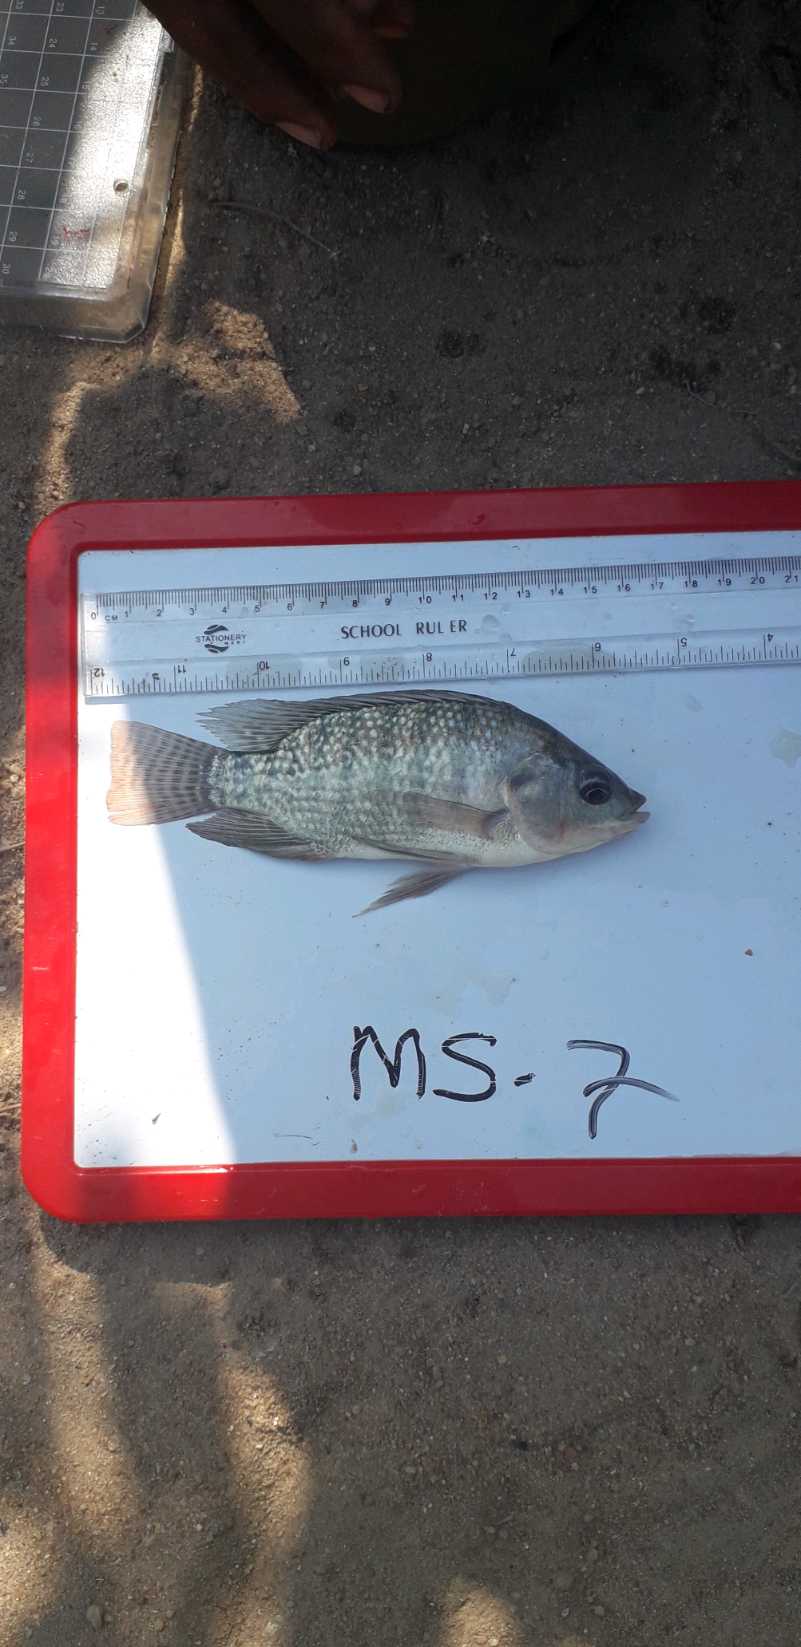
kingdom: Animalia
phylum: Chordata
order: Perciformes
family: Cichlidae
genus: Oreochromis
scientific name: Oreochromis niloticus
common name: Nile tilapia
